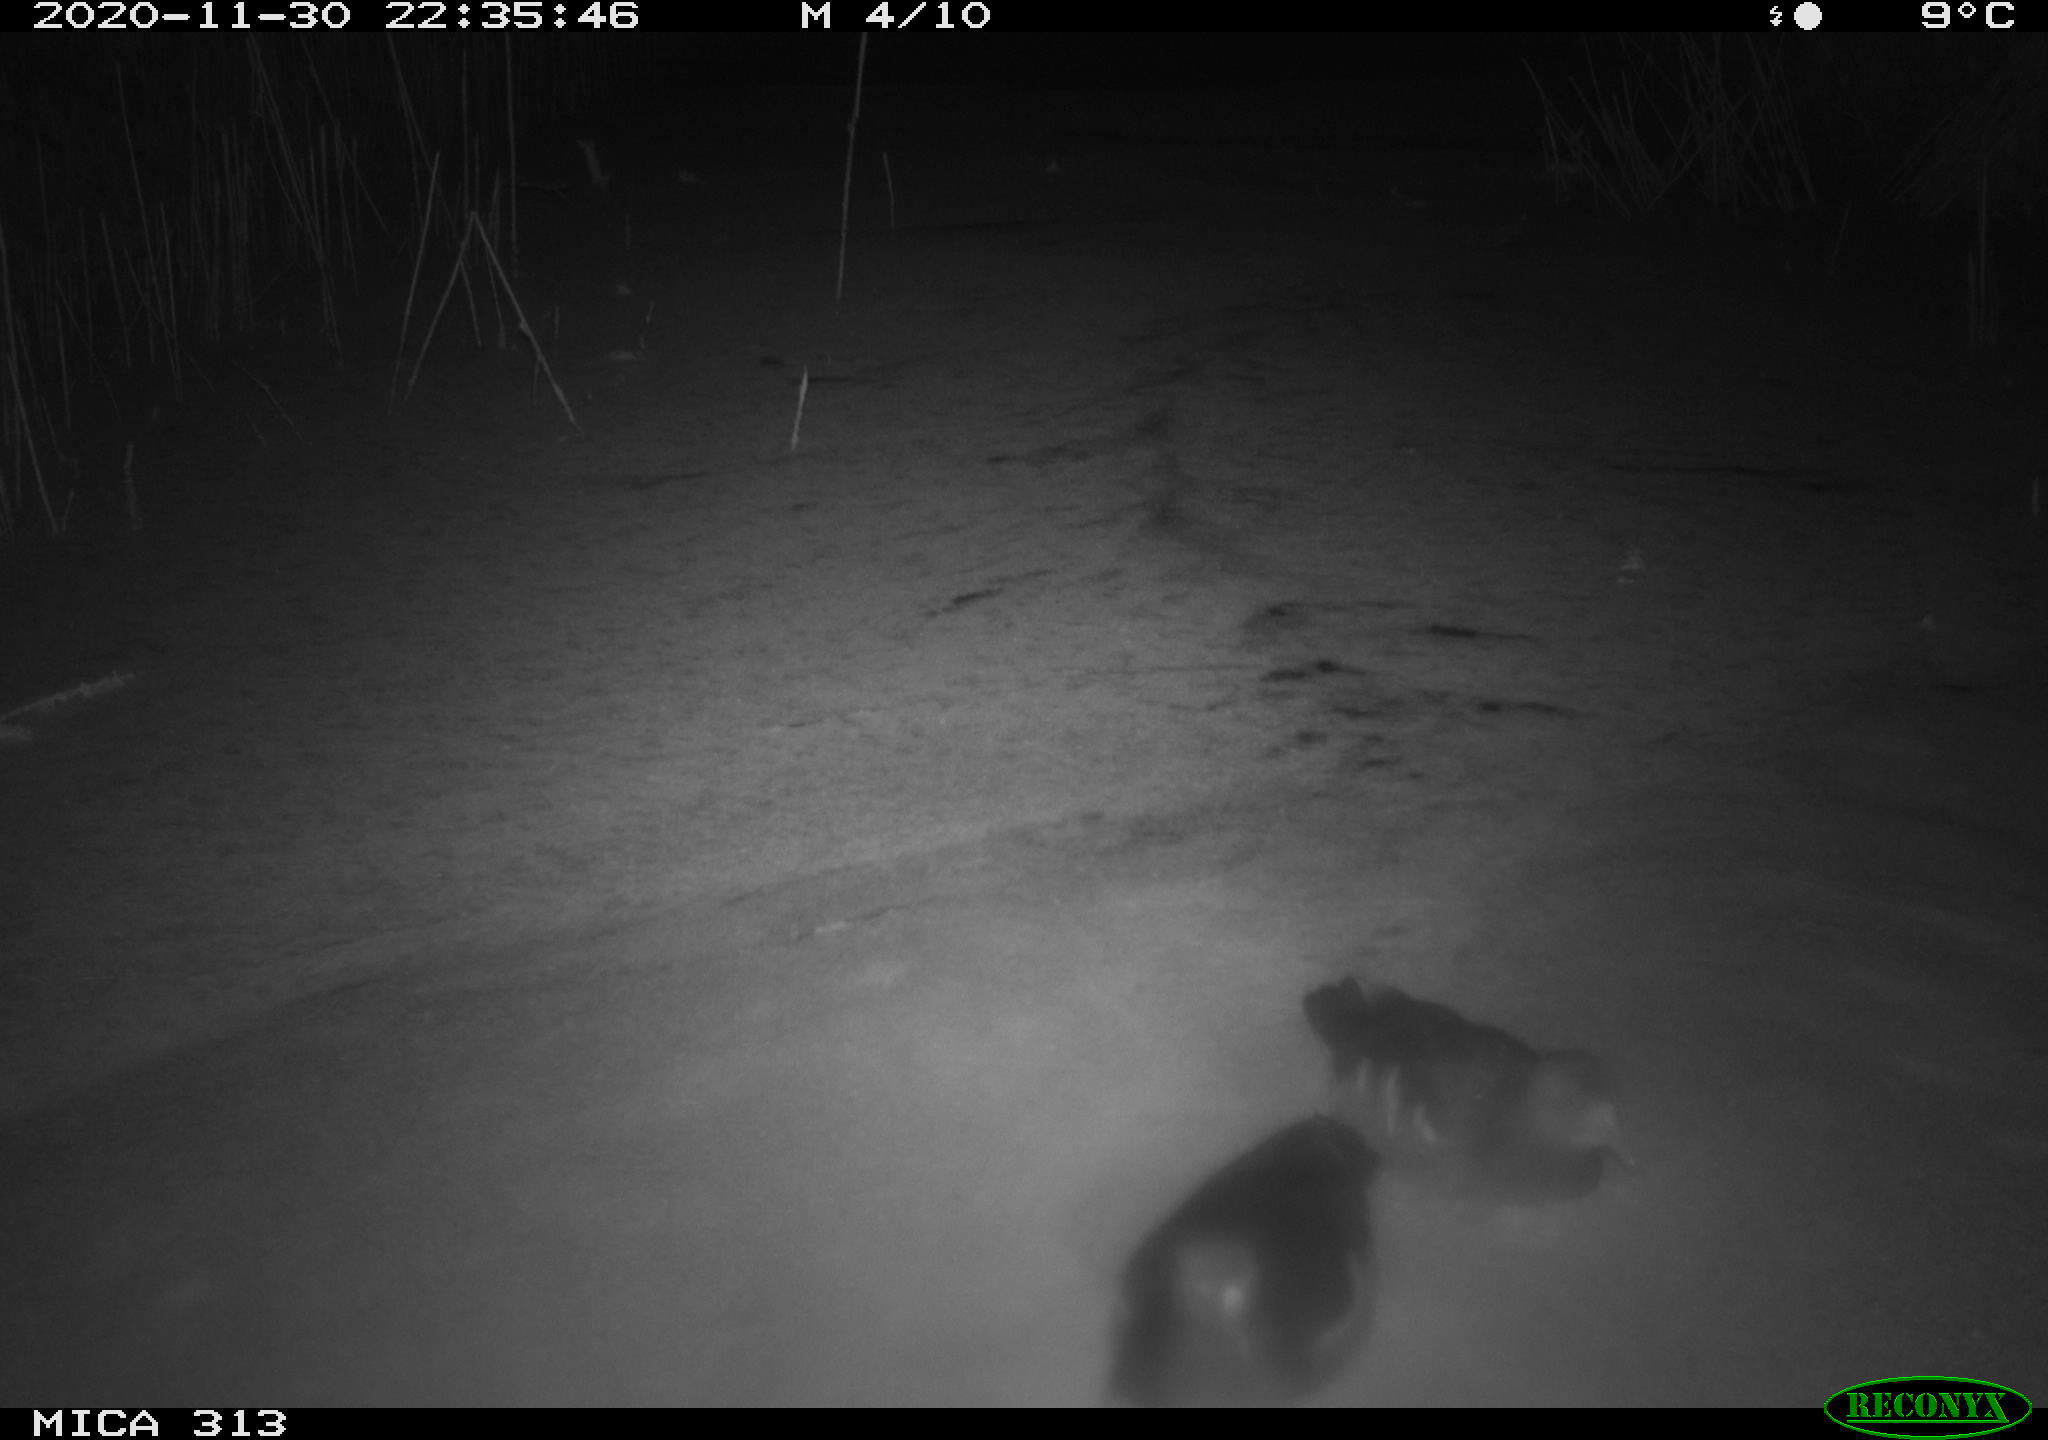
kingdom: Animalia
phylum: Chordata
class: Aves
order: Gruiformes
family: Rallidae
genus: Gallinula
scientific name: Gallinula chloropus
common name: Common moorhen
